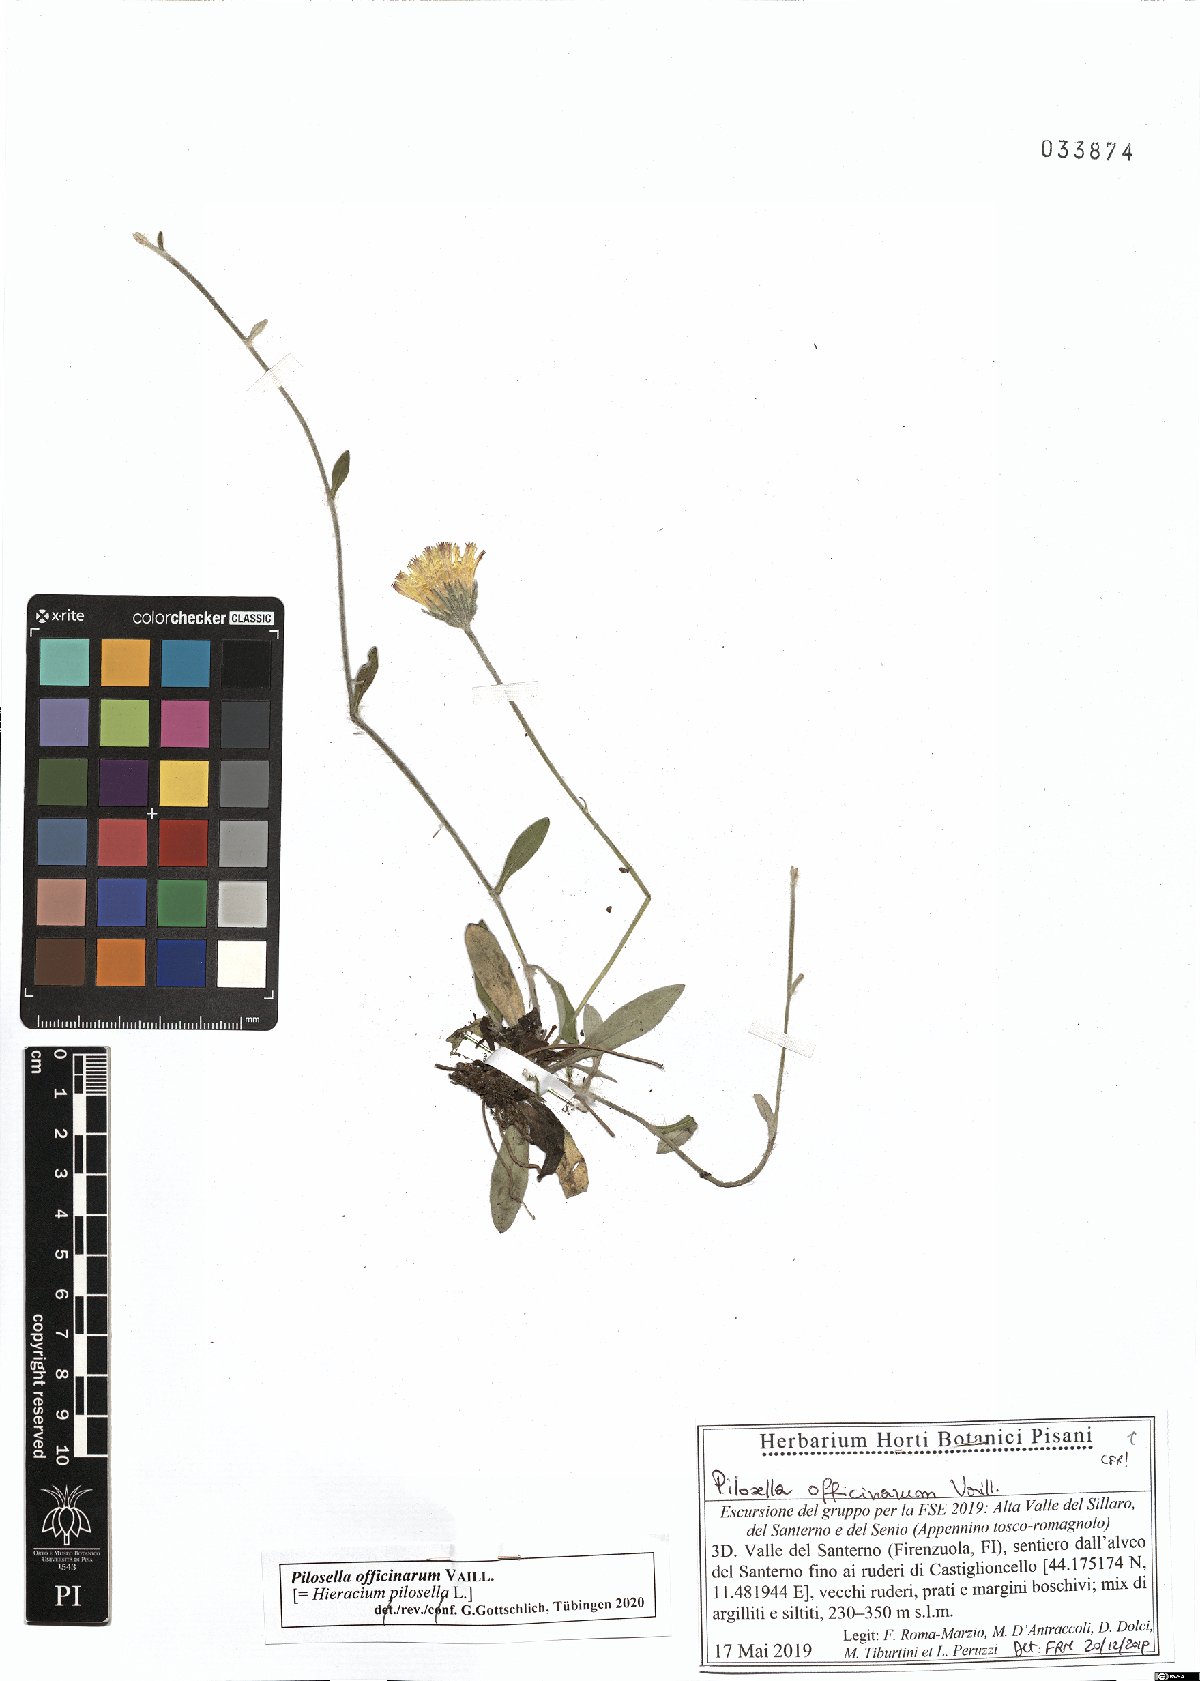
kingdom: Plantae
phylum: Tracheophyta
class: Magnoliopsida
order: Asterales
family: Asteraceae
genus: Pilosella
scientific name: Pilosella officinarum
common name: Mouse-ear hawkweed
